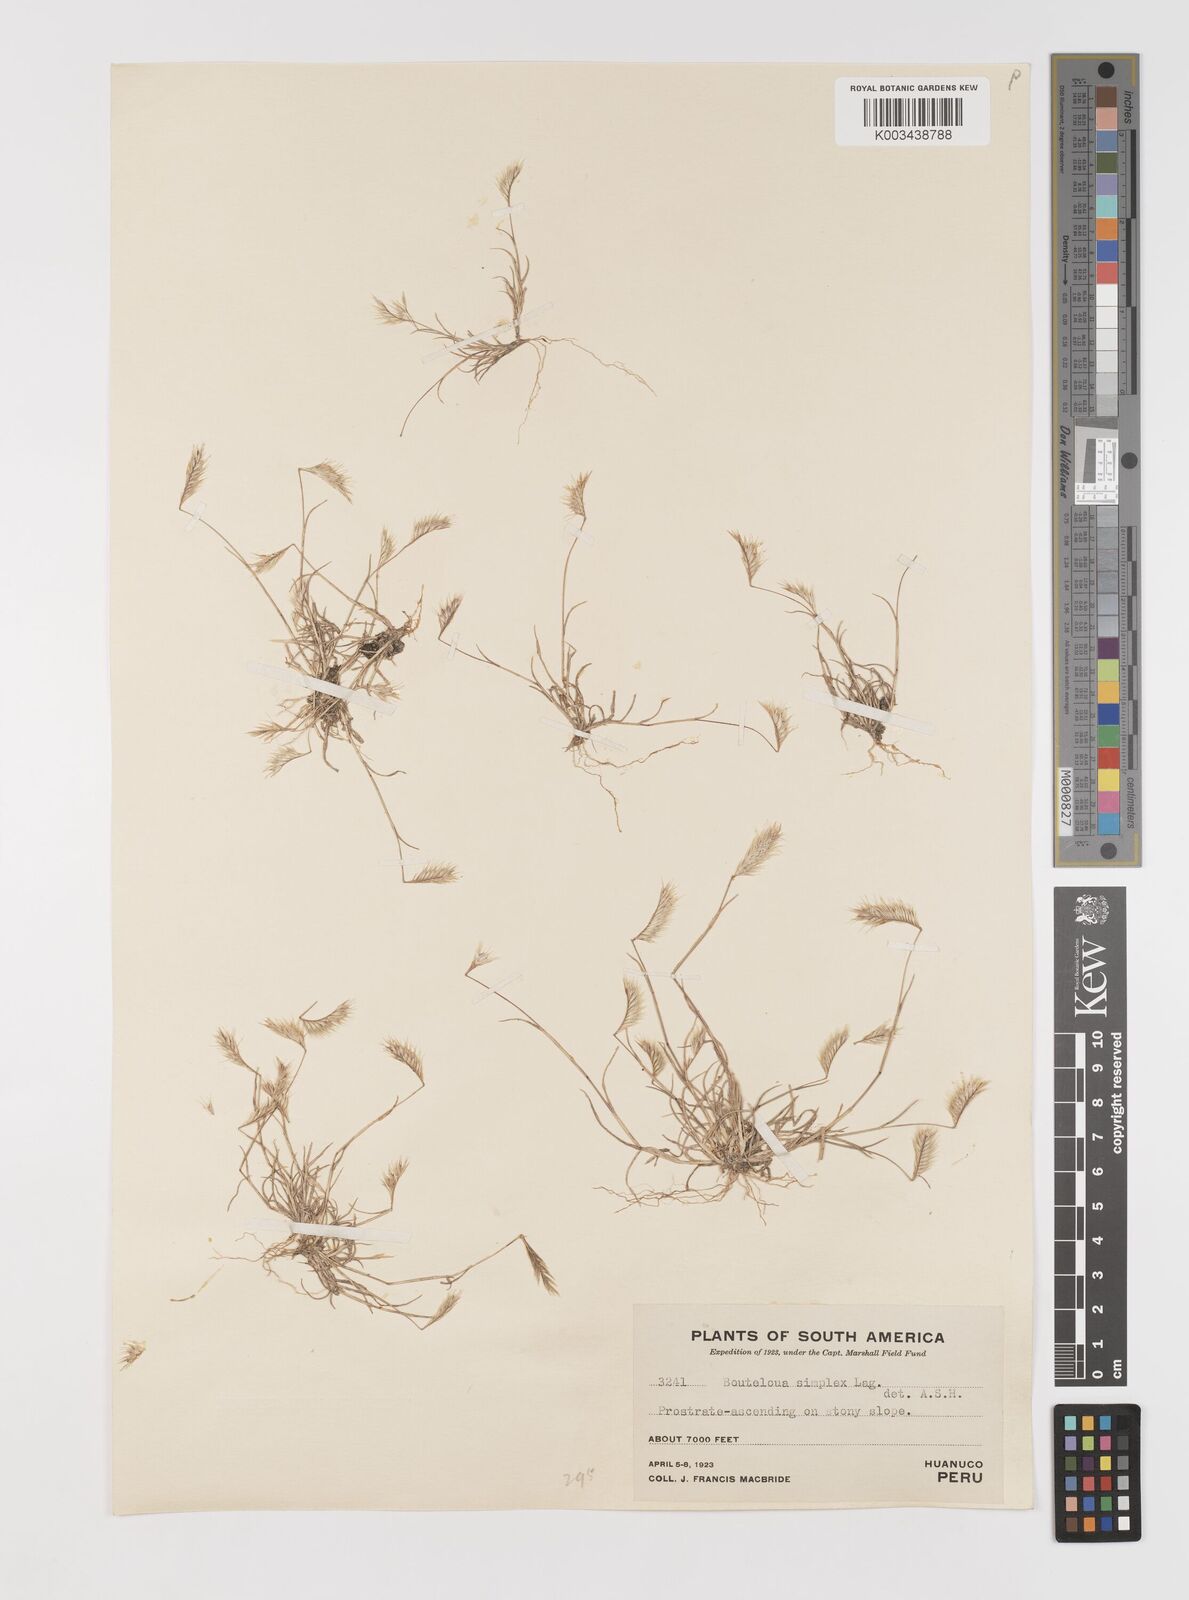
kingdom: Plantae
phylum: Tracheophyta
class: Liliopsida
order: Poales
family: Poaceae
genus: Bouteloua
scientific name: Bouteloua simplex
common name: Mat grama
